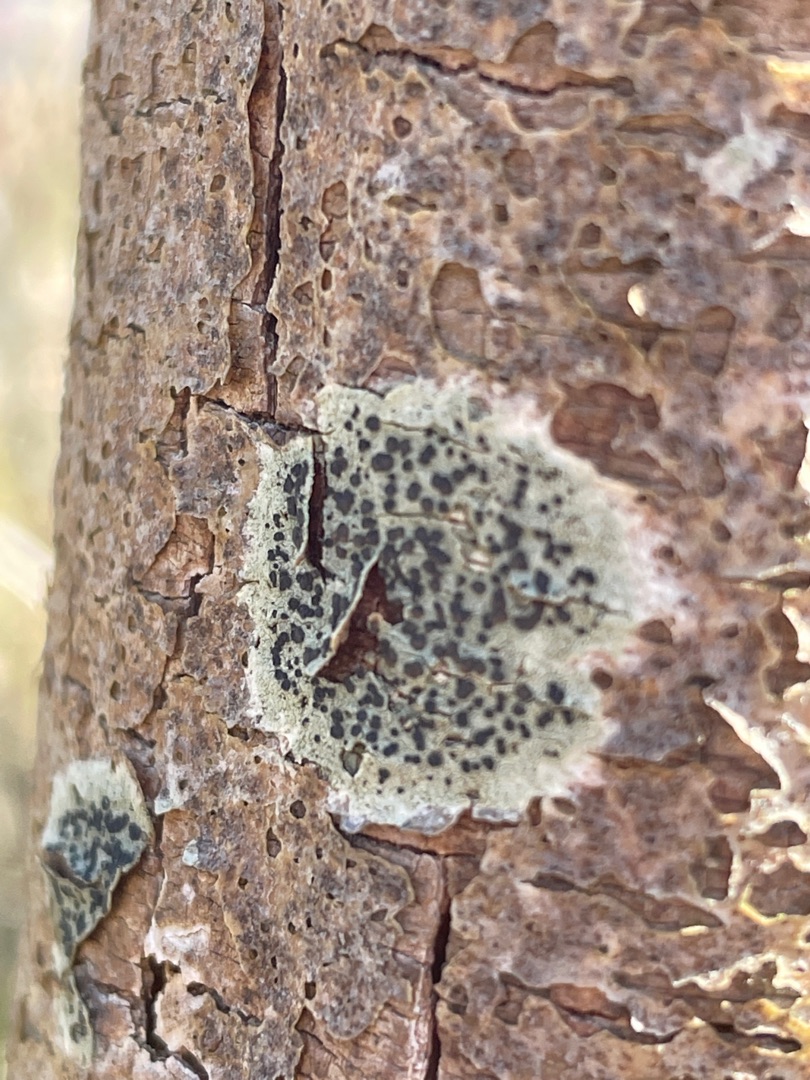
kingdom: Fungi
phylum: Ascomycota
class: Lecanoromycetes
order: Lecanorales
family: Lecanoraceae
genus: Lecidella
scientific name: Lecidella elaeochroma
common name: Grågrøn skivelav
